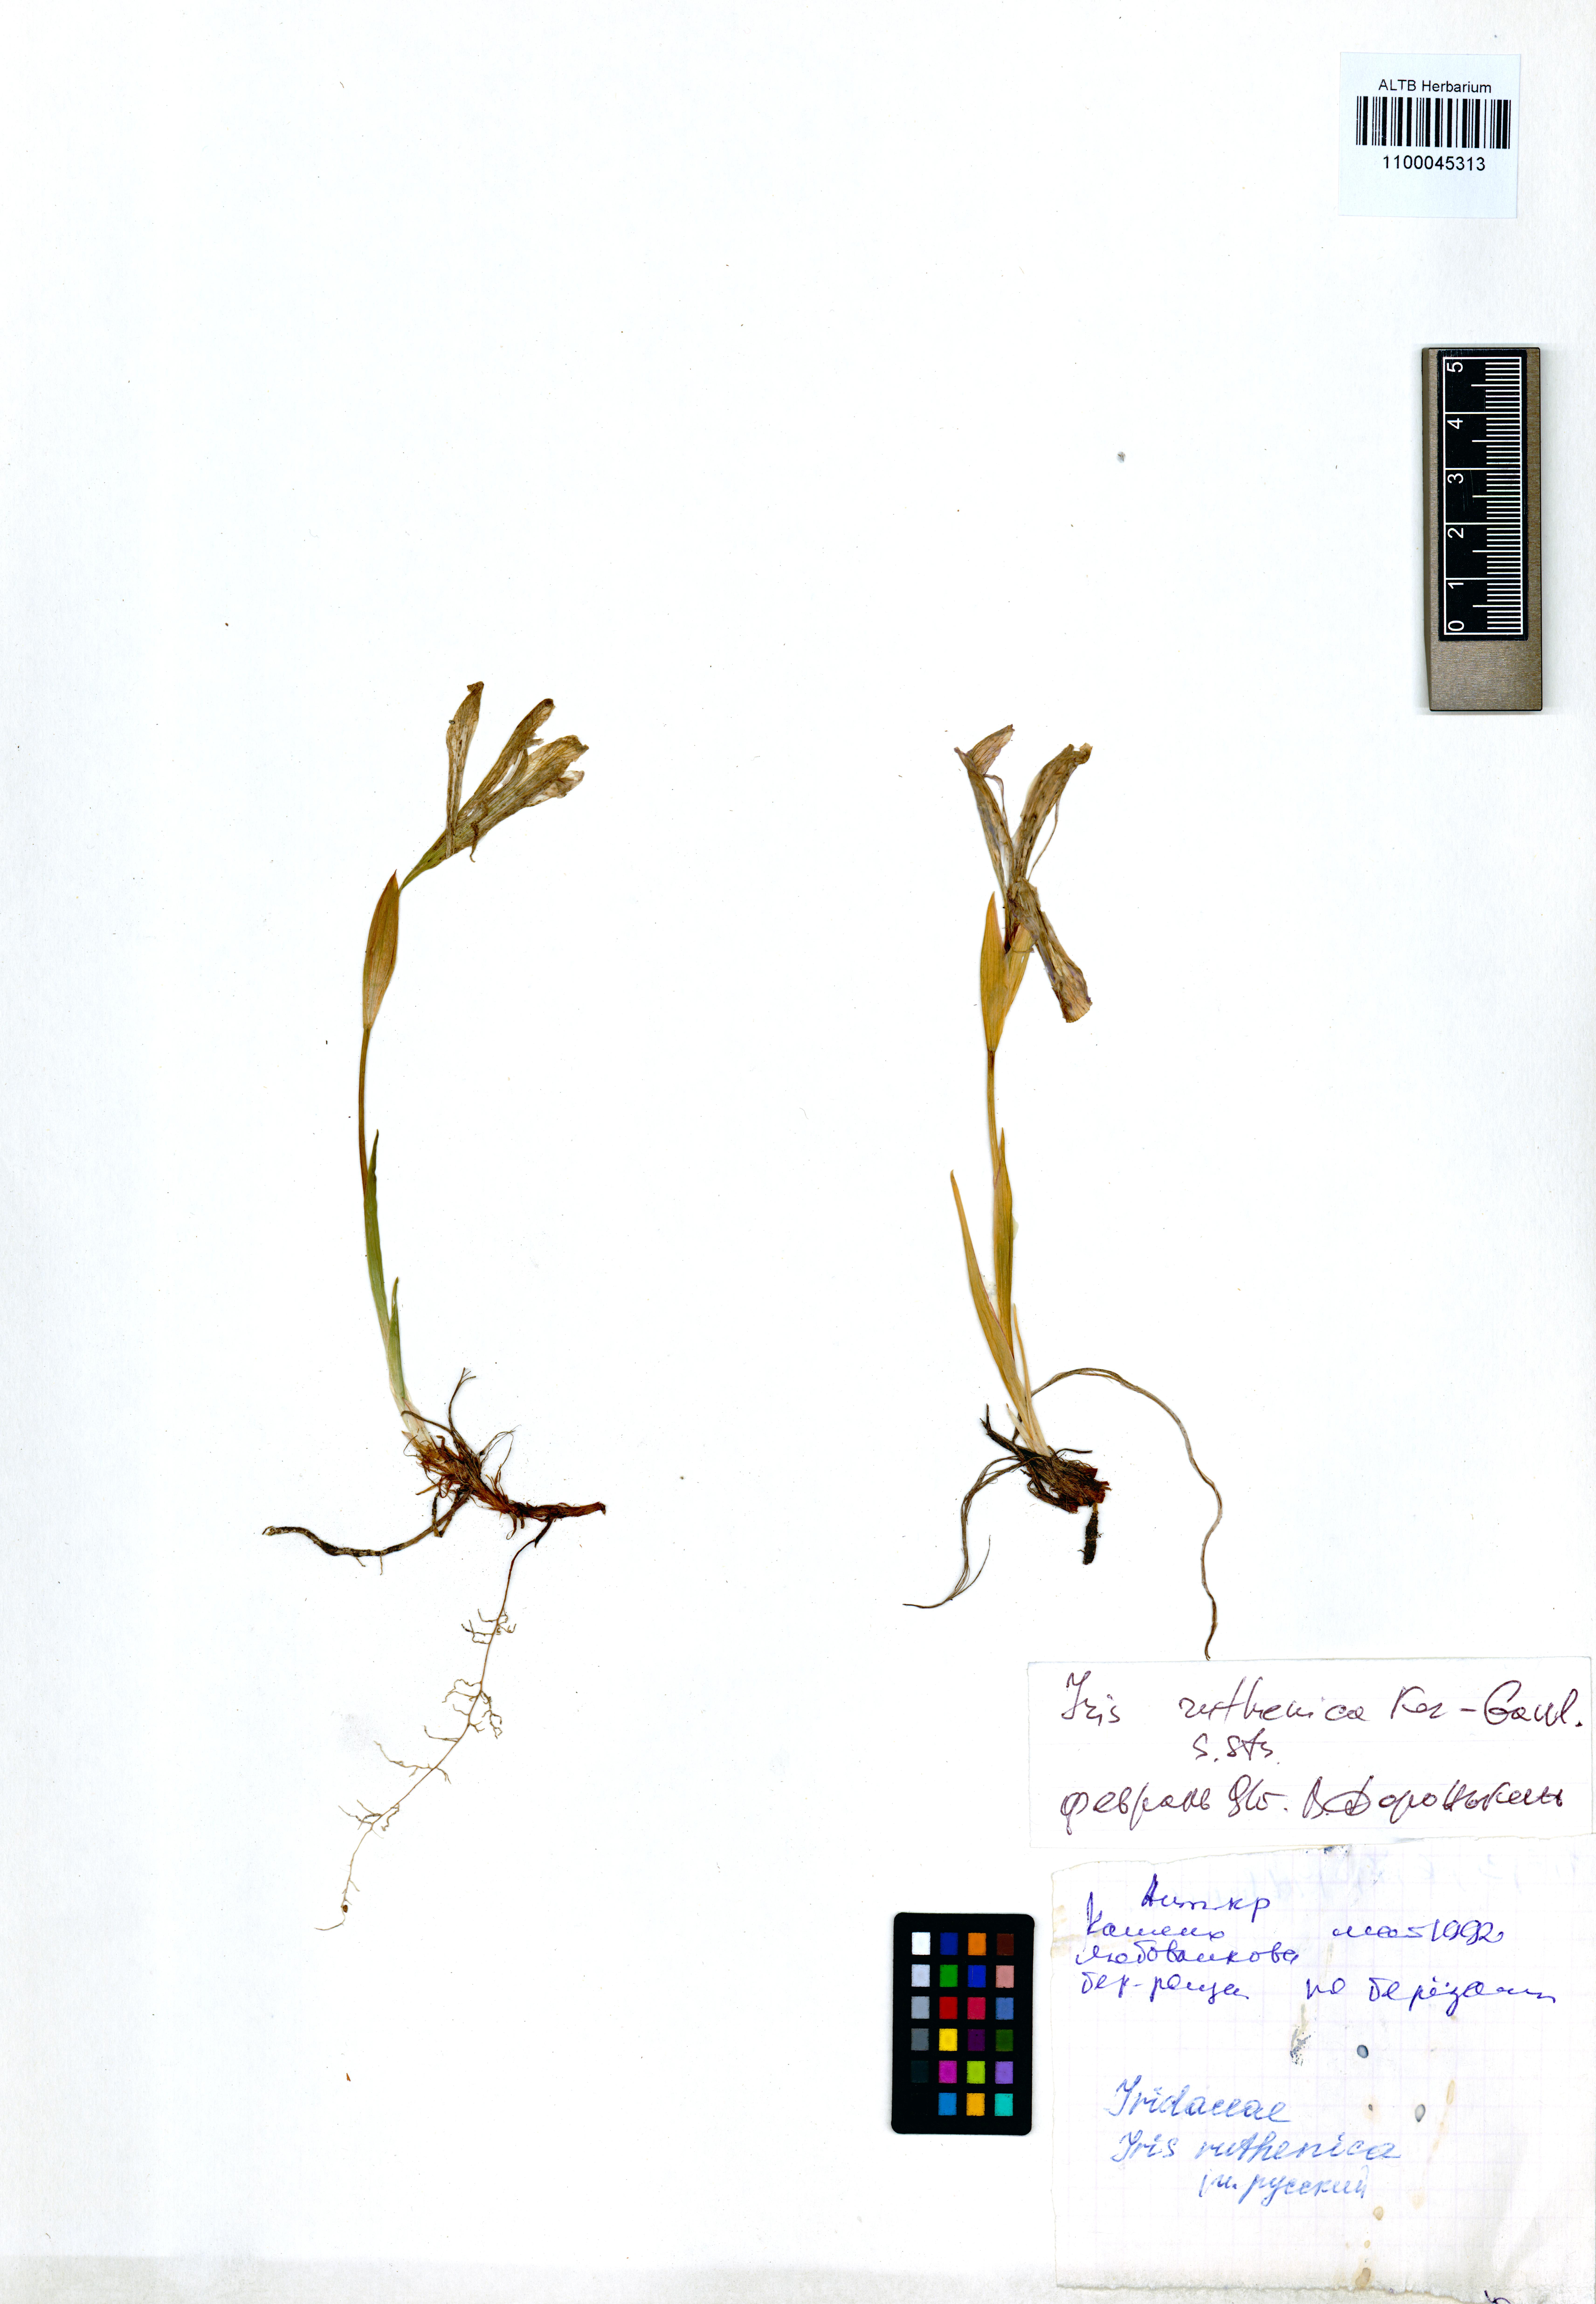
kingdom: Plantae
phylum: Tracheophyta
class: Liliopsida
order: Asparagales
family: Iridaceae
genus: Iris
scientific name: Iris ruthenica
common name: Purple-bract iris
